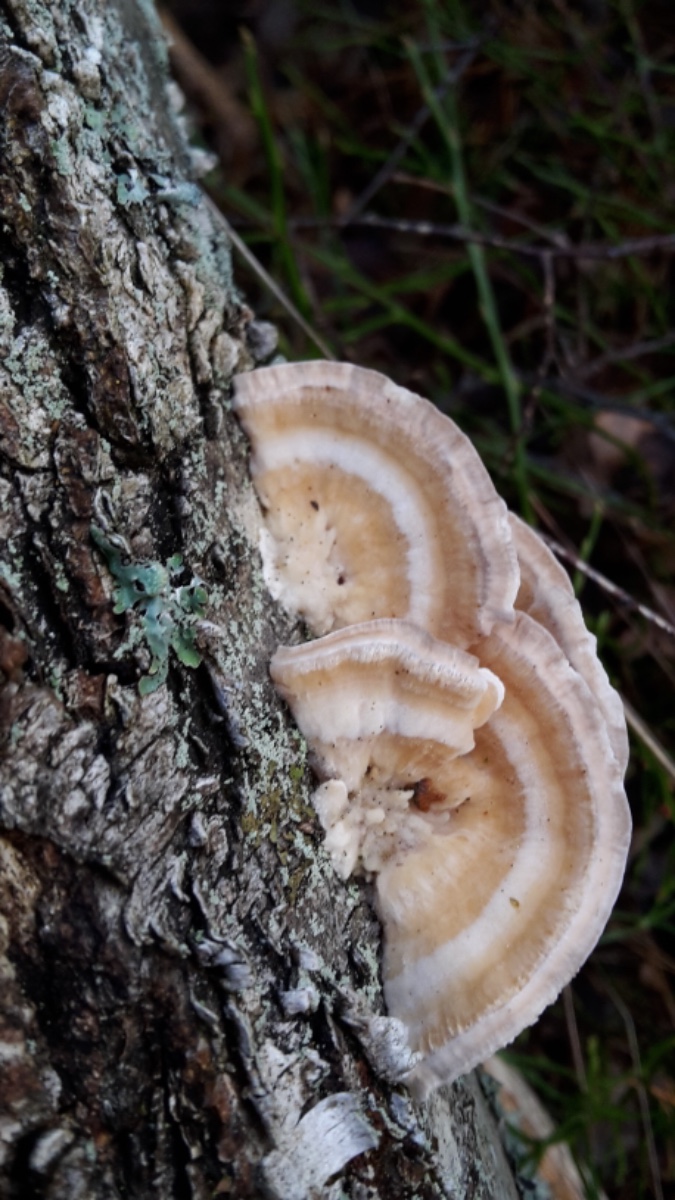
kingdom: Fungi
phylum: Basidiomycota
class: Agaricomycetes
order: Polyporales
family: Polyporaceae
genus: Trametes
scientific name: Trametes ochracea
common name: bæltet læderporesvamp
